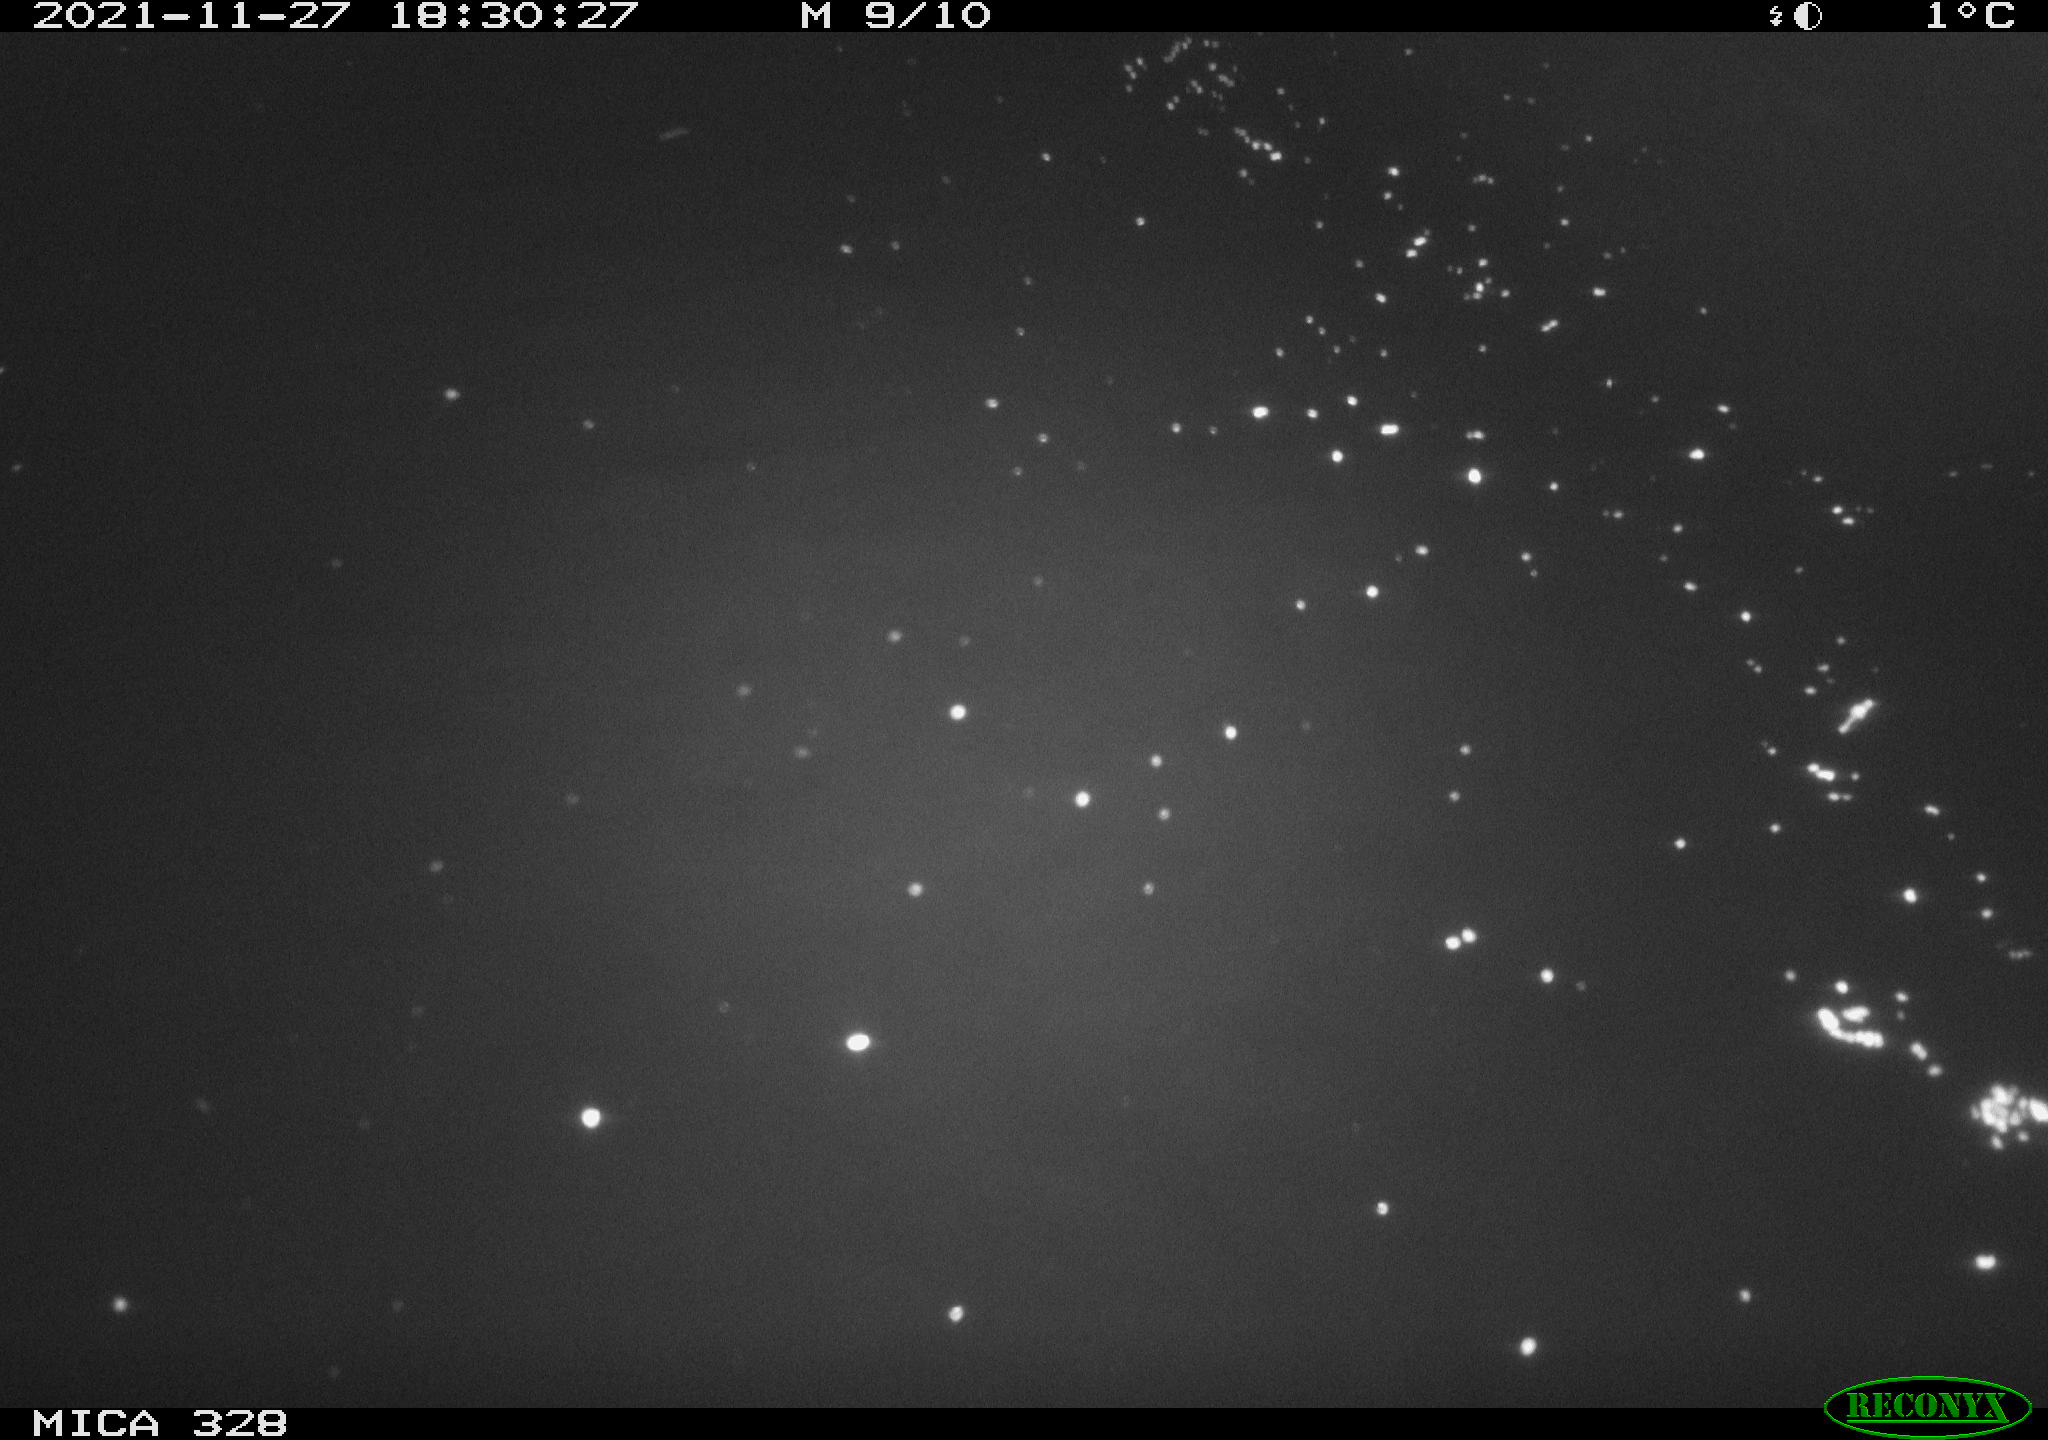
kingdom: Animalia
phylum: Chordata
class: Mammalia
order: Rodentia
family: Cricetidae
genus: Ondatra
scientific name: Ondatra zibethicus
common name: Muskrat
